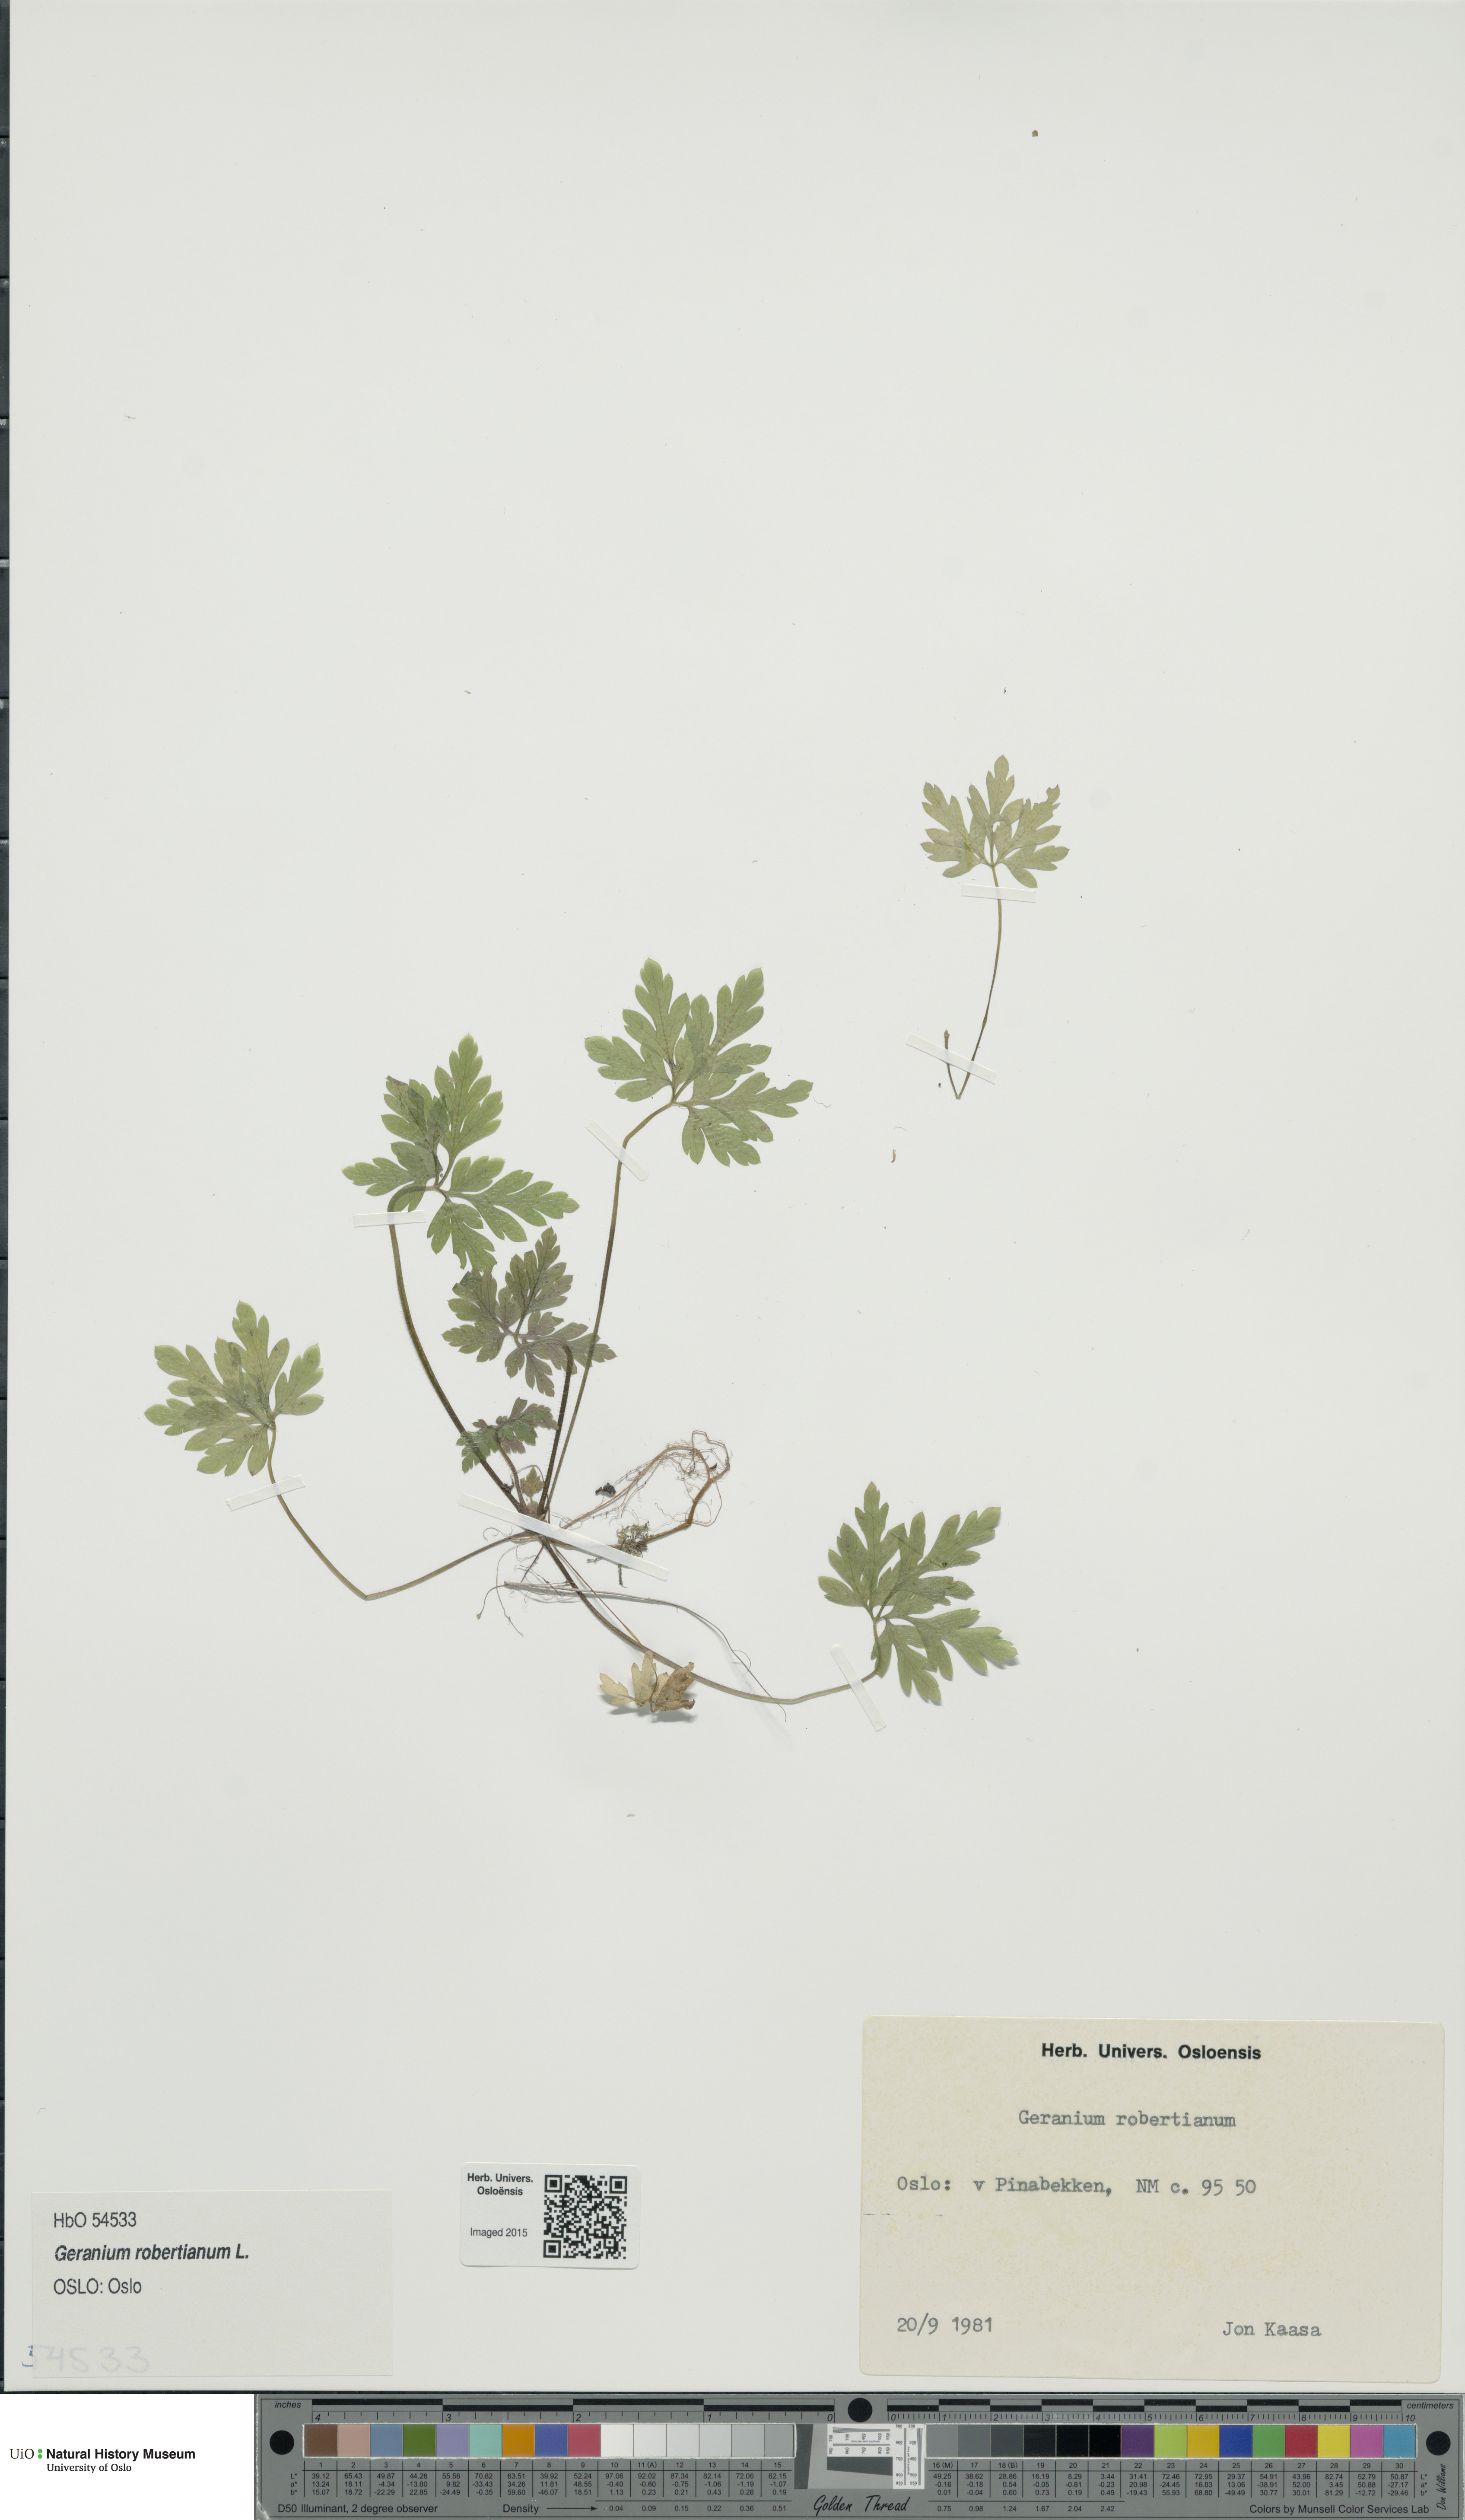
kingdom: Plantae
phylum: Tracheophyta
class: Magnoliopsida
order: Geraniales
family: Geraniaceae
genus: Geranium
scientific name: Geranium robertianum
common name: Herb-robert
